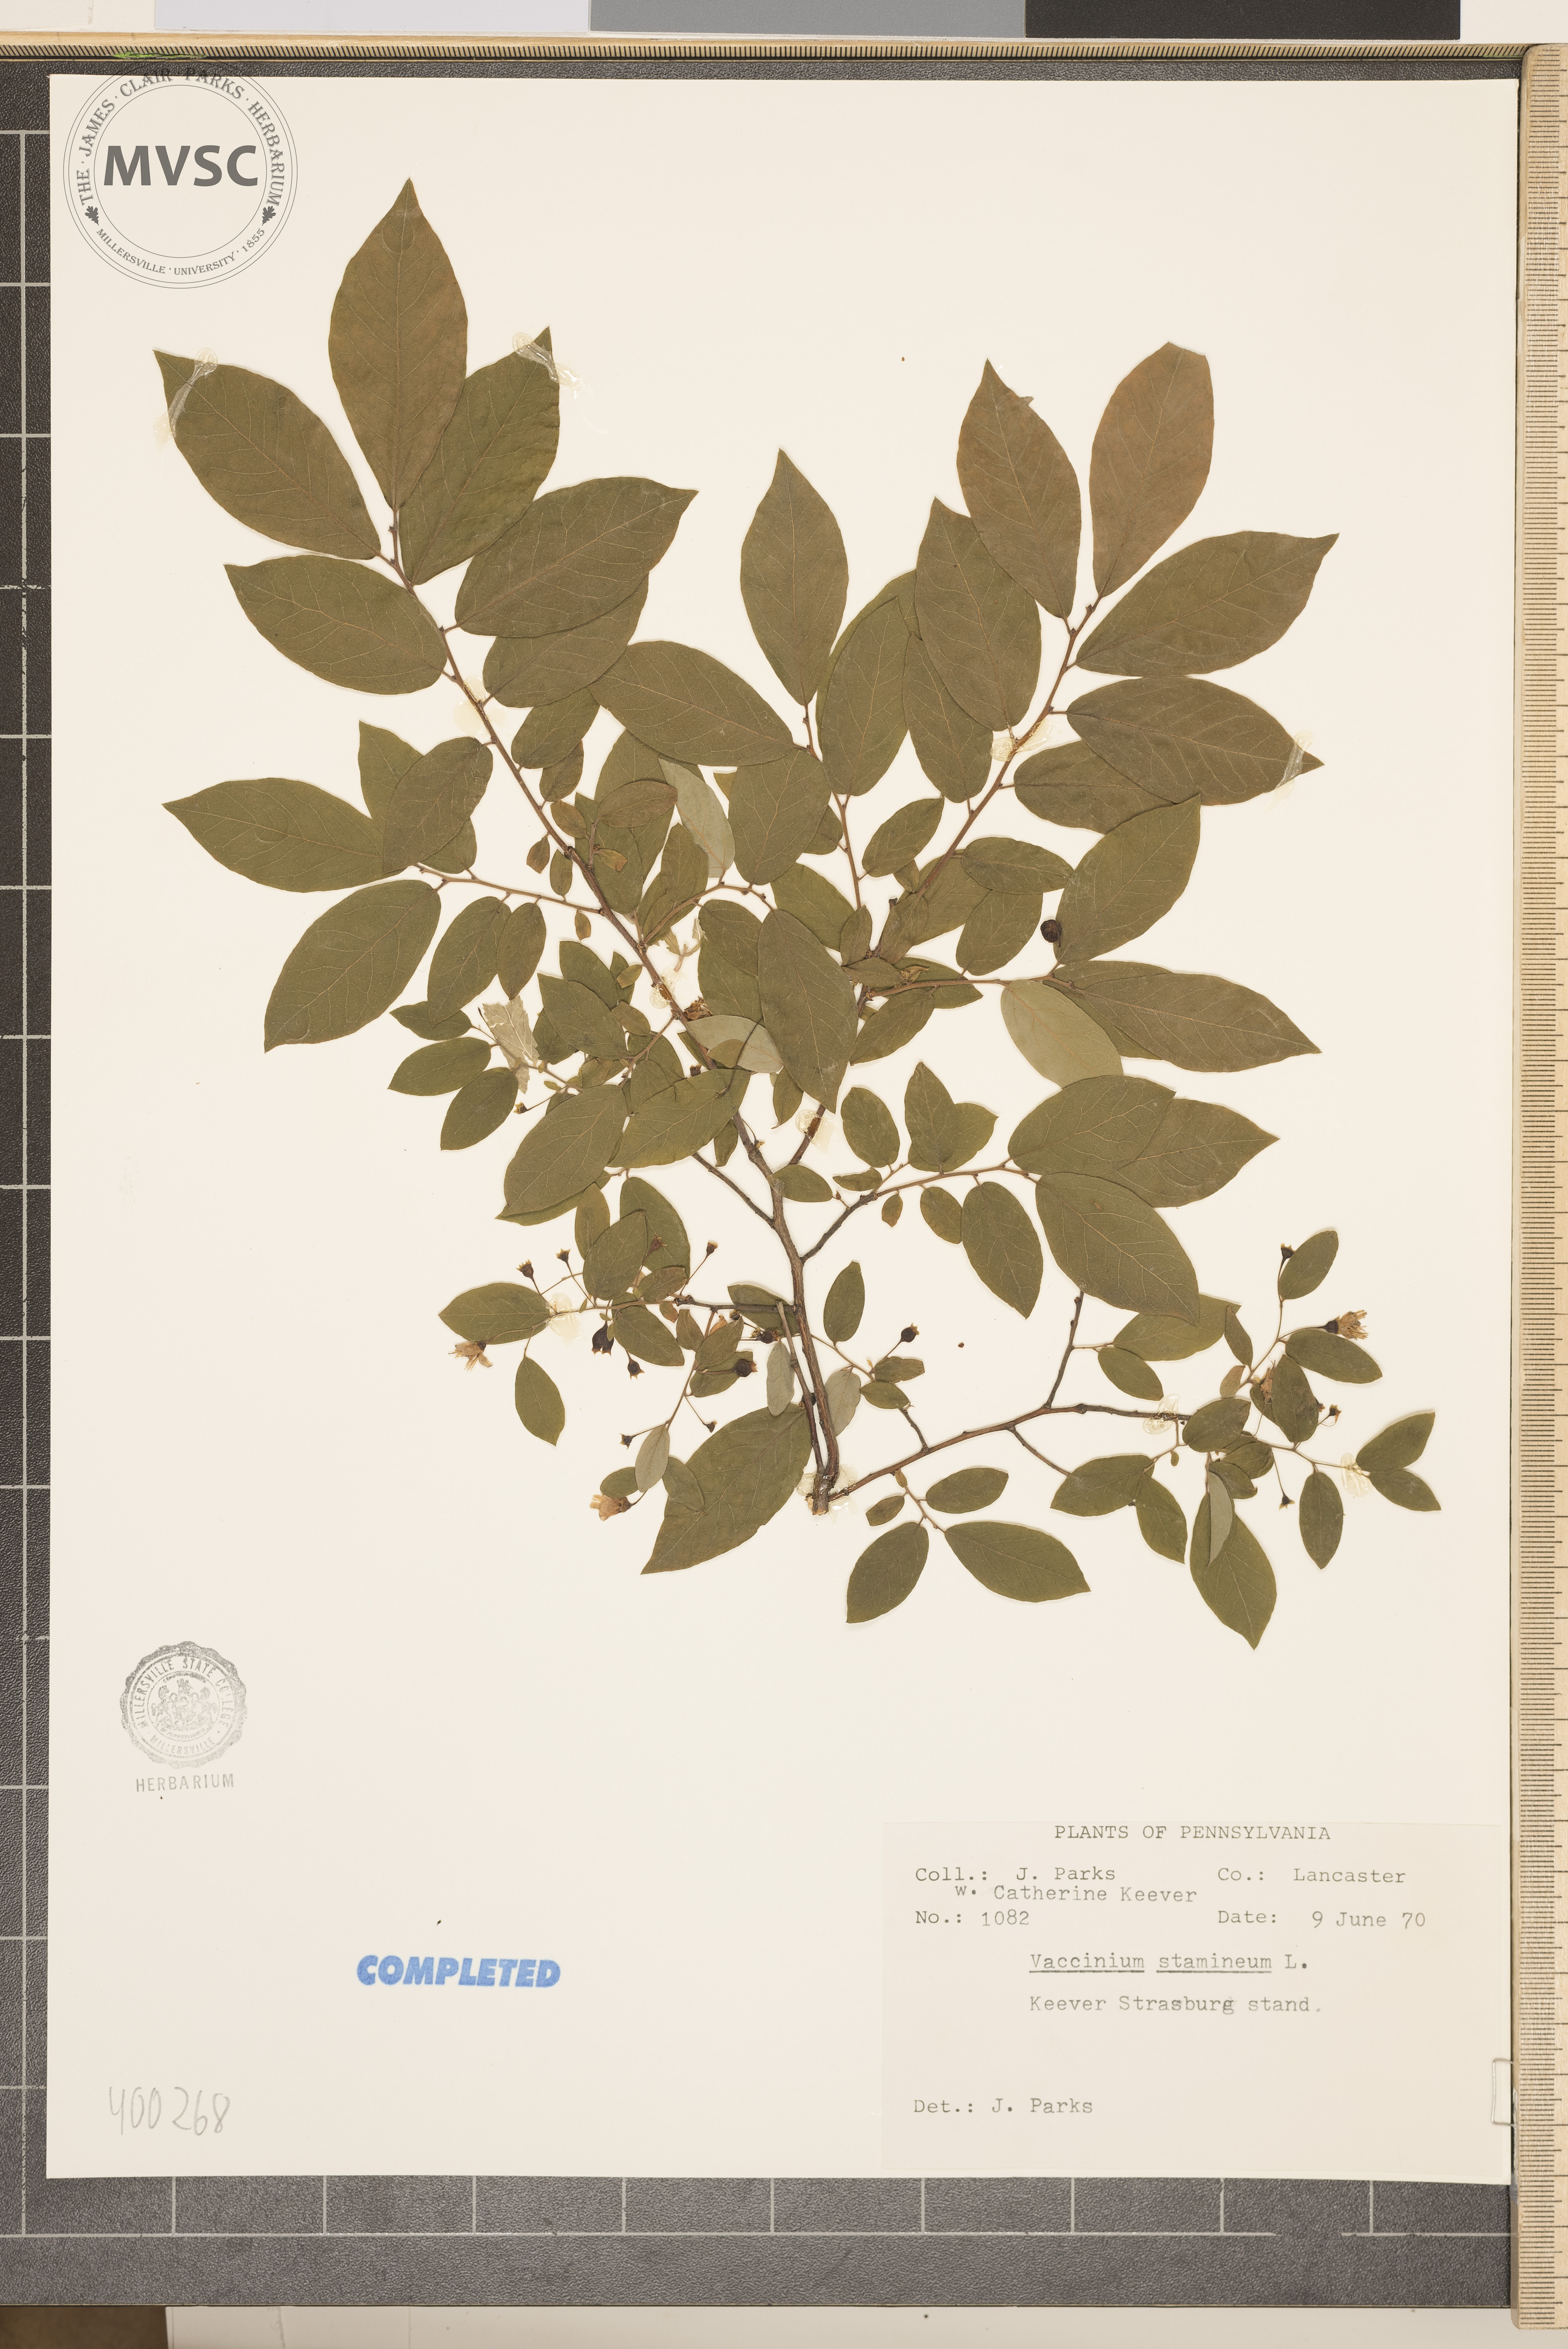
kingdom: Plantae
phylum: Tracheophyta
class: Magnoliopsida
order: Ericales
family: Ericaceae
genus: Vaccinium
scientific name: Vaccinium stamineum
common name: deerberry
